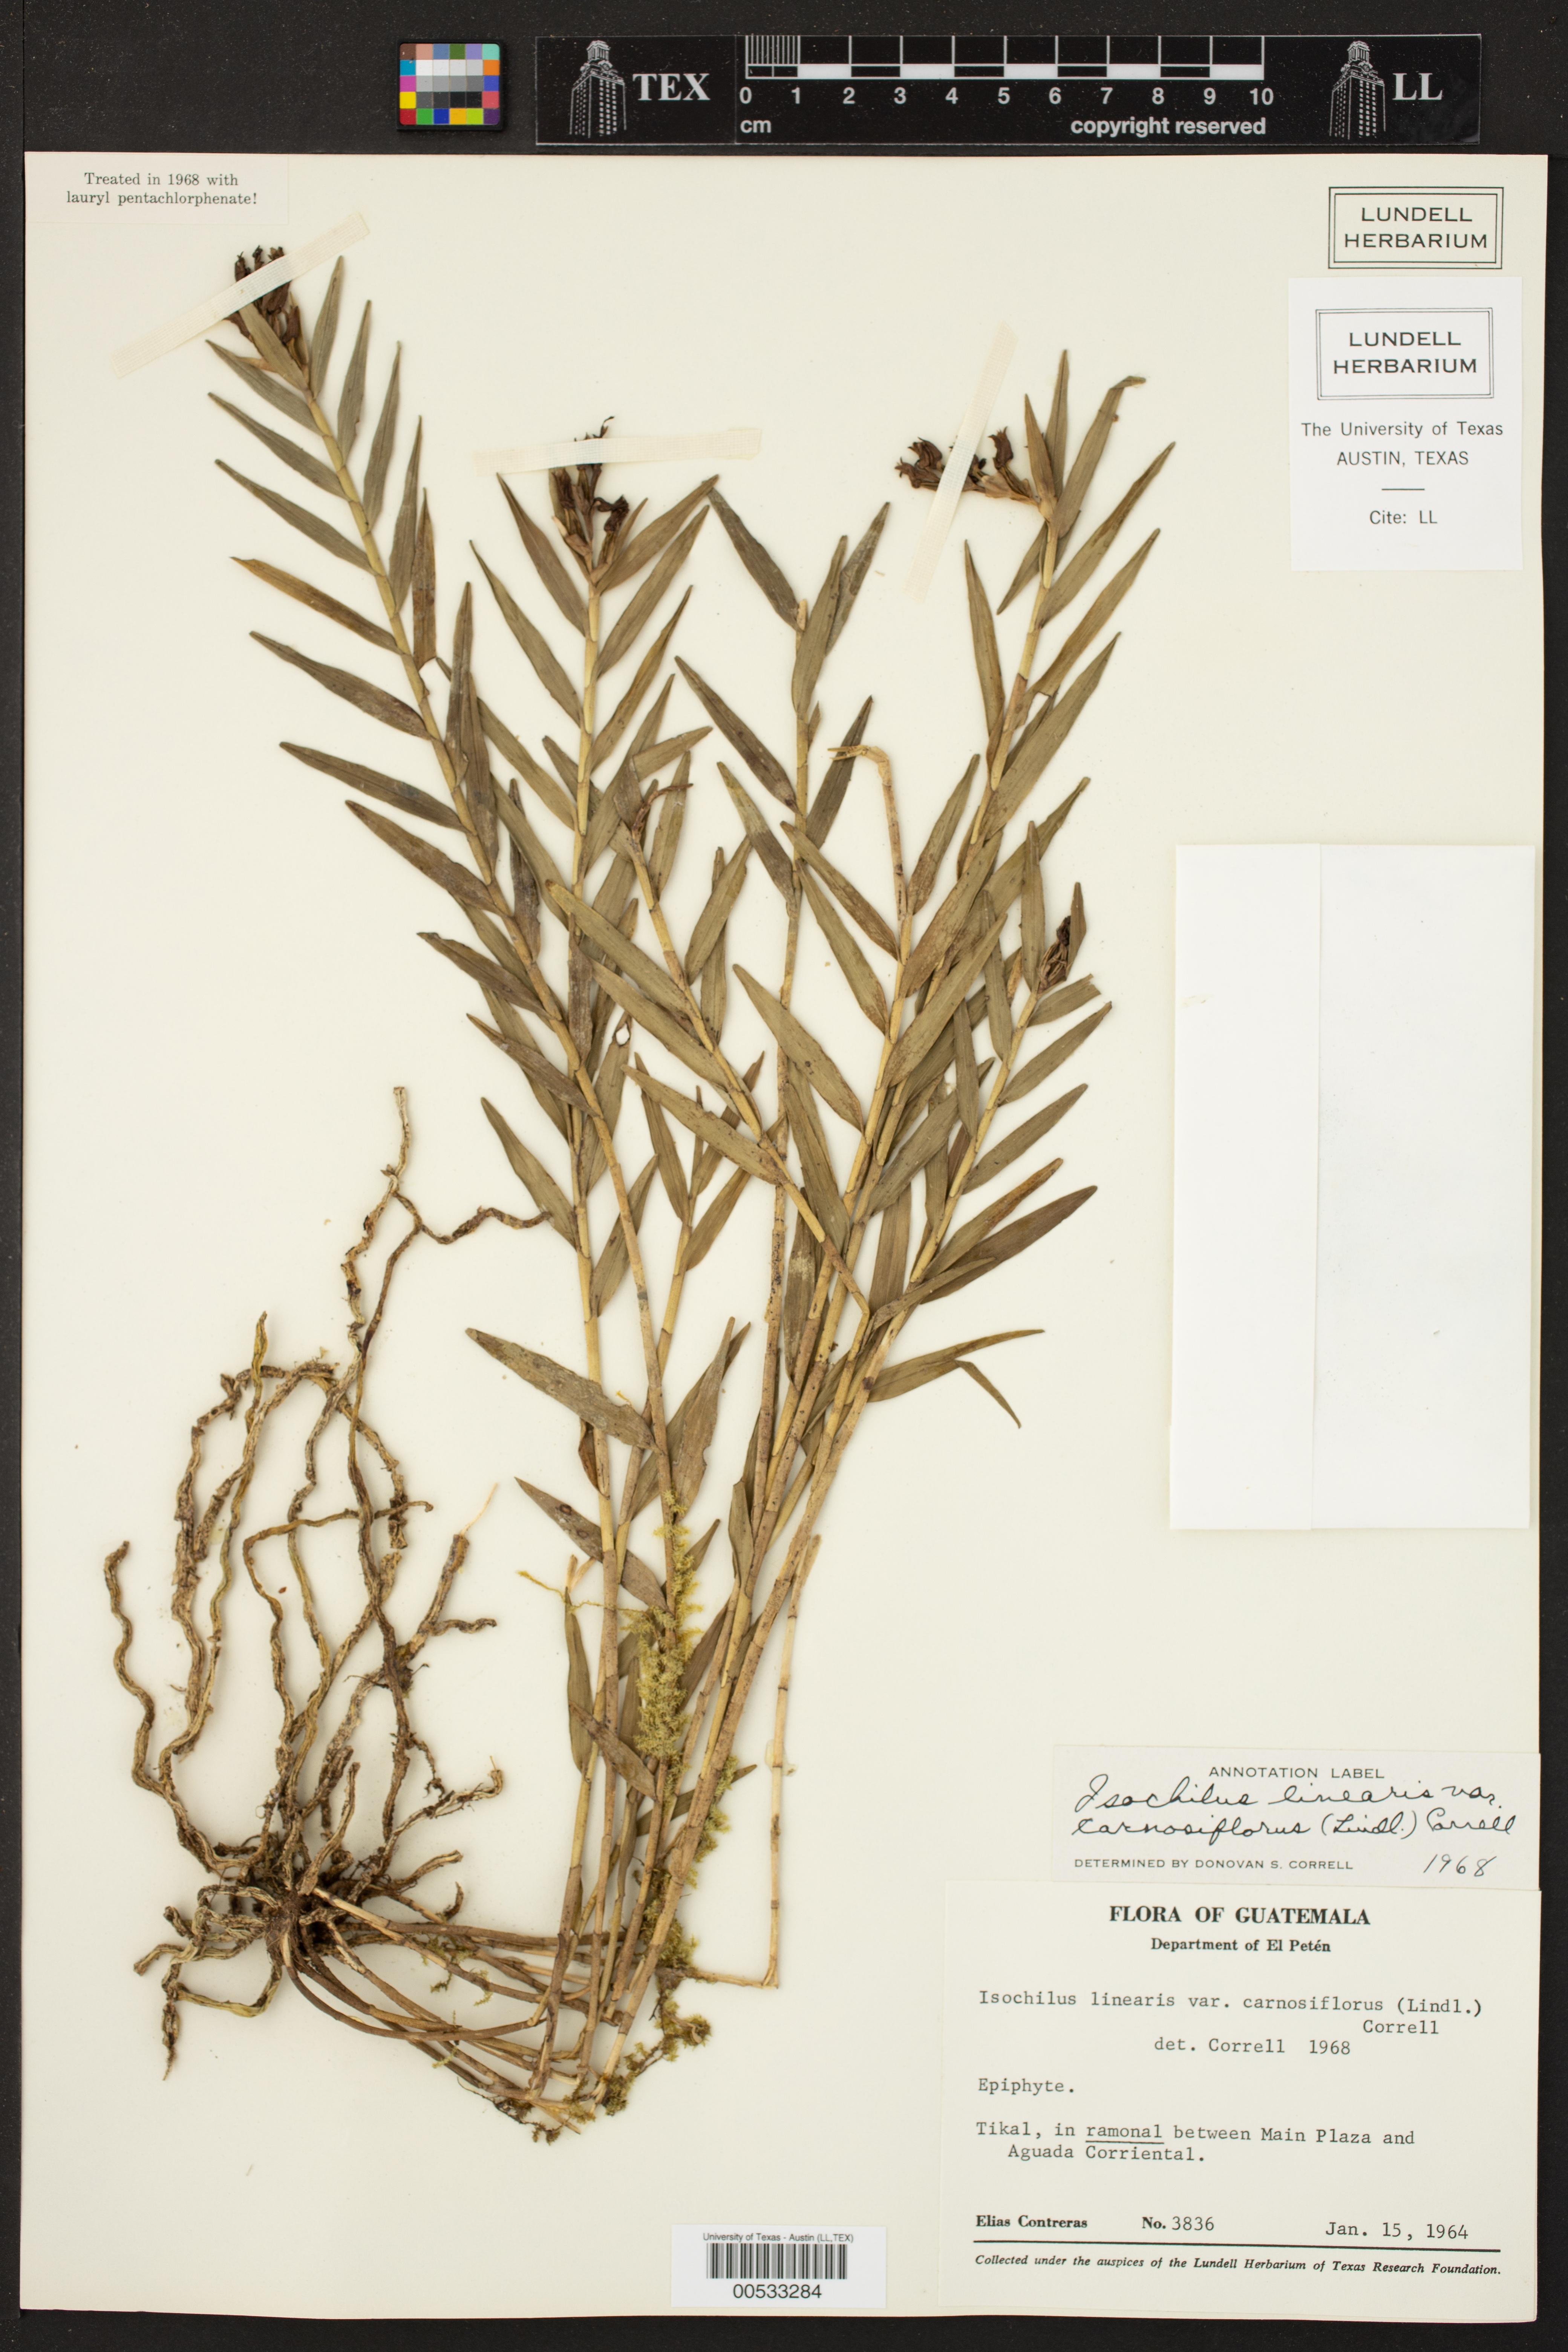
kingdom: Plantae
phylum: Tracheophyta
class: Liliopsida
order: Asparagales
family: Orchidaceae
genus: Isochilus
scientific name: Isochilus carnosiflorus
